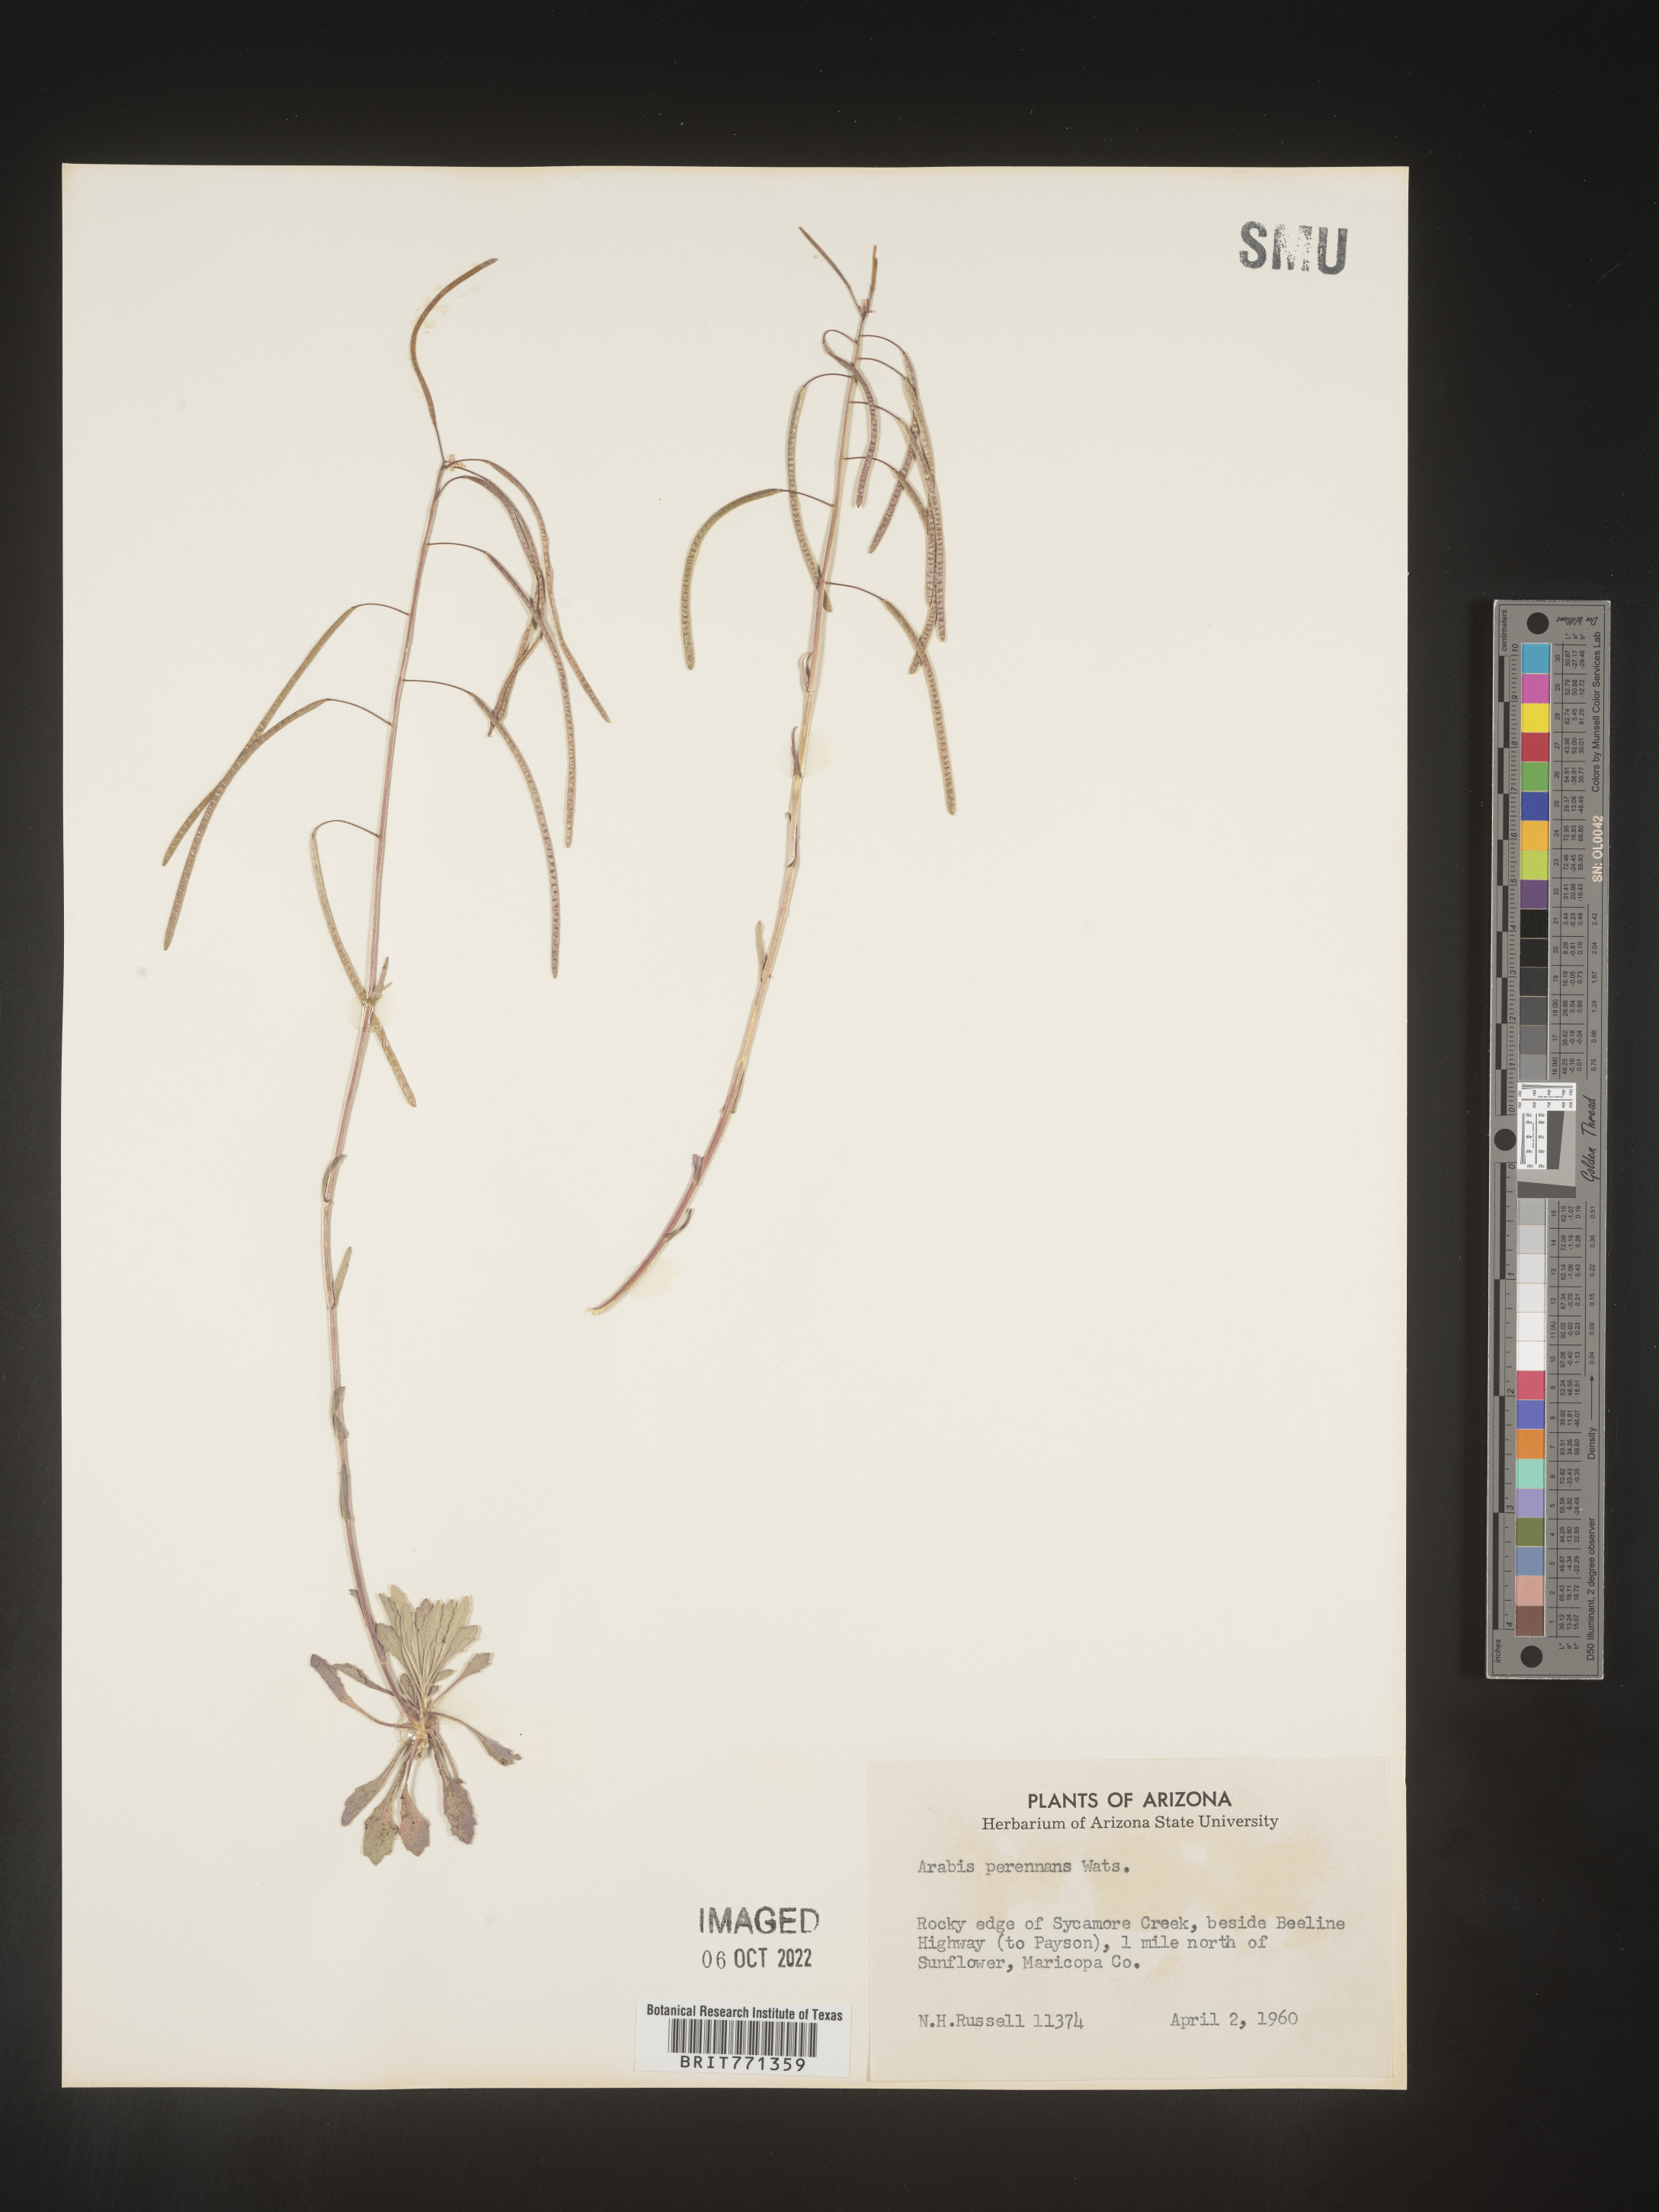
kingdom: Plantae
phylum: Tracheophyta
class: Magnoliopsida
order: Brassicales
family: Brassicaceae
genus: Arabis
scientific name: Arabis
